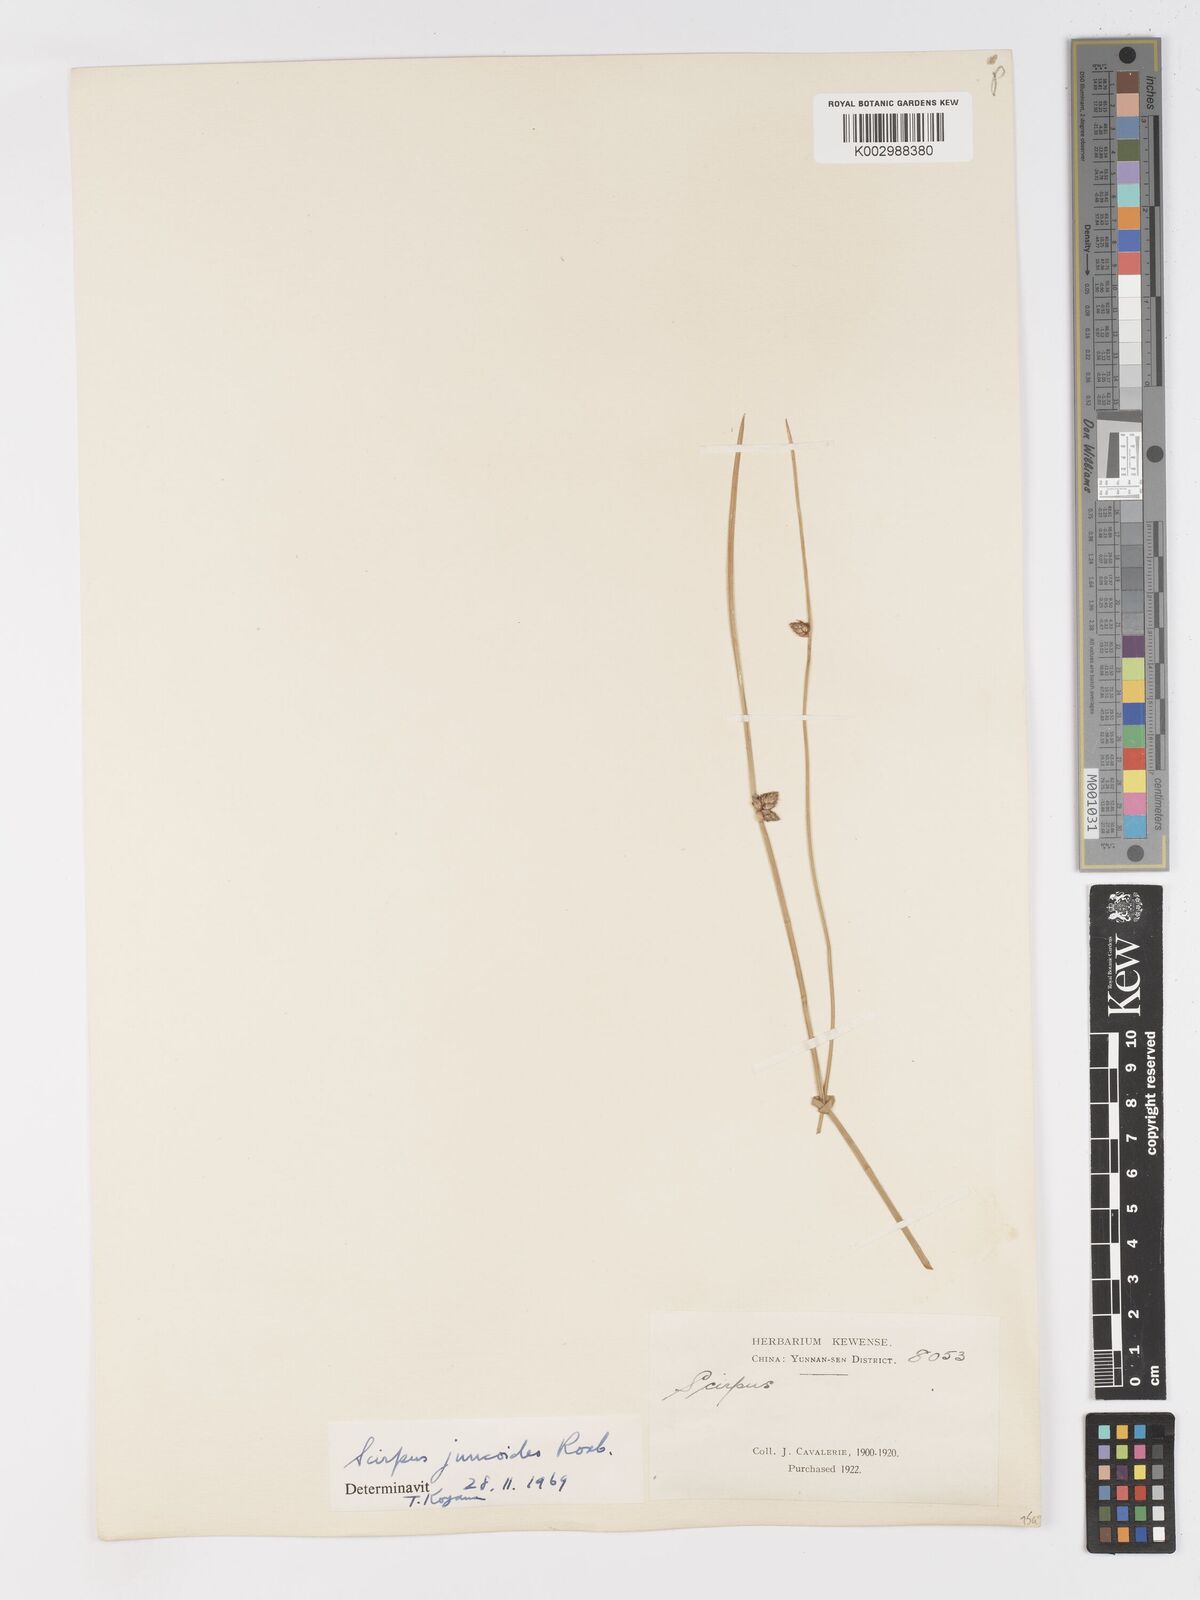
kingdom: Plantae
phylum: Tracheophyta
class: Liliopsida
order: Poales
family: Cyperaceae
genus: Schoenoplectiella
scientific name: Schoenoplectiella juncoides
